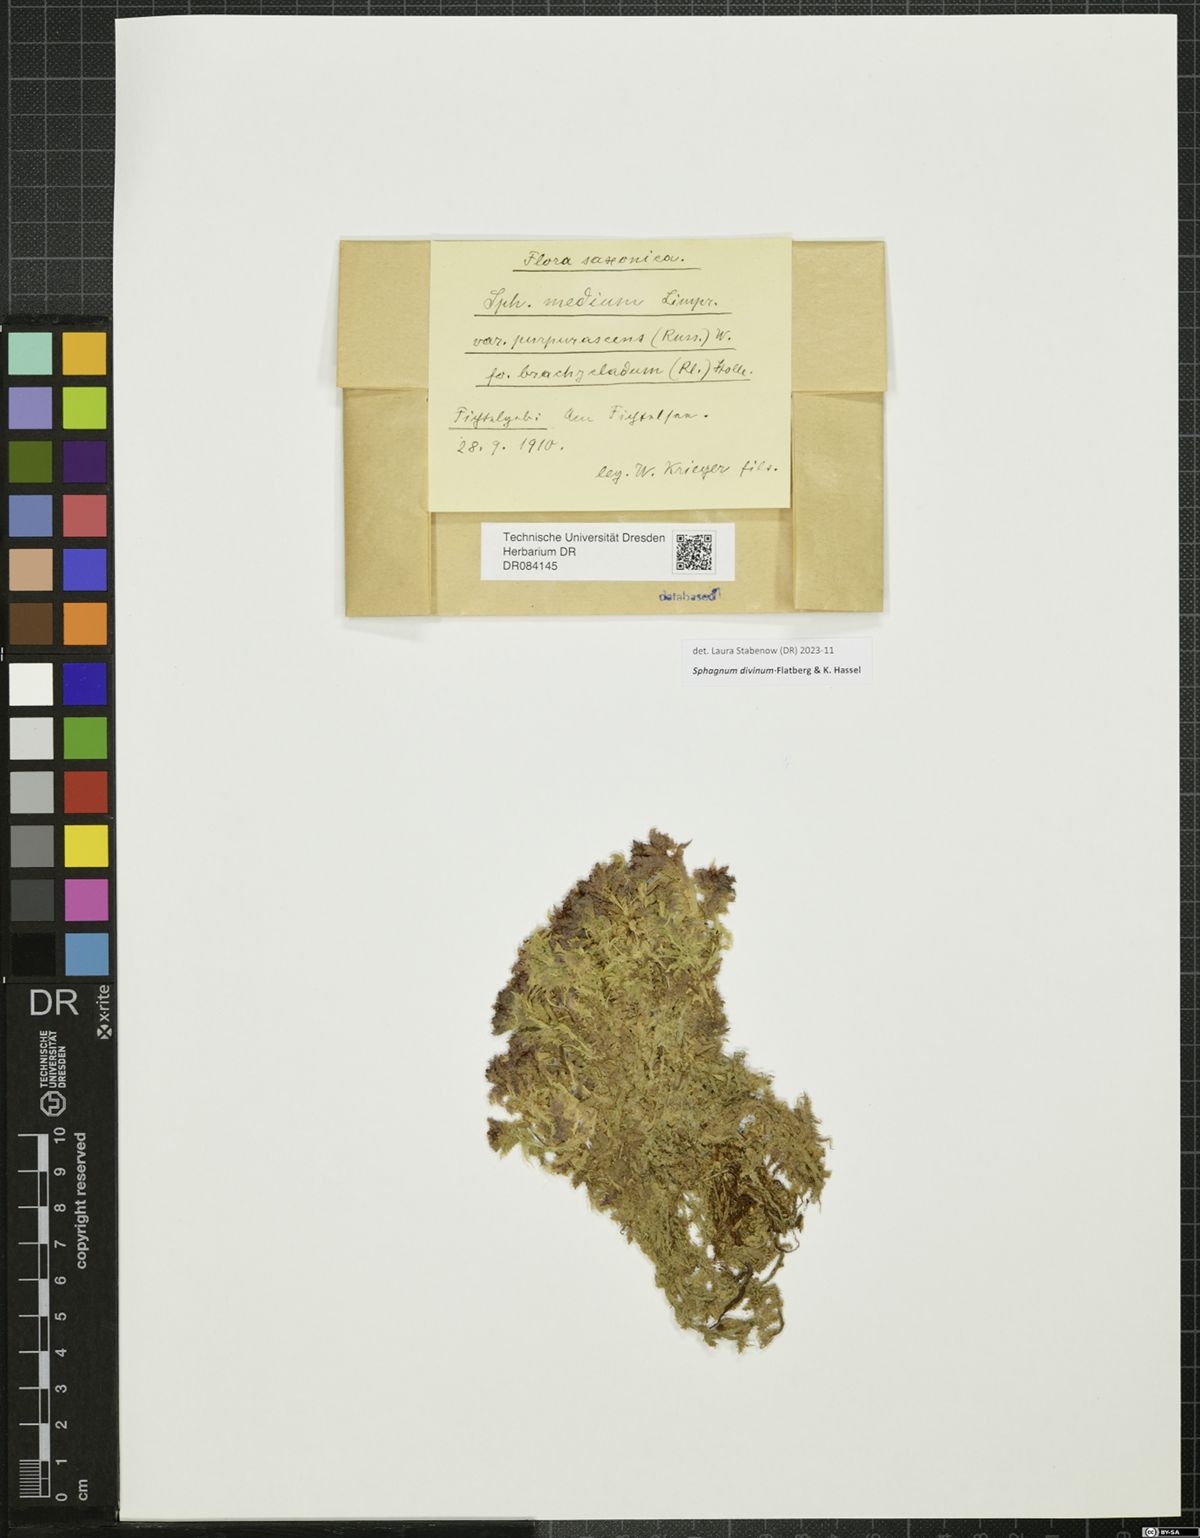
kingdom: Plantae
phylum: Bryophyta
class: Sphagnopsida
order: Sphagnales
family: Sphagnaceae
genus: Sphagnum
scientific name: Sphagnum divinum
